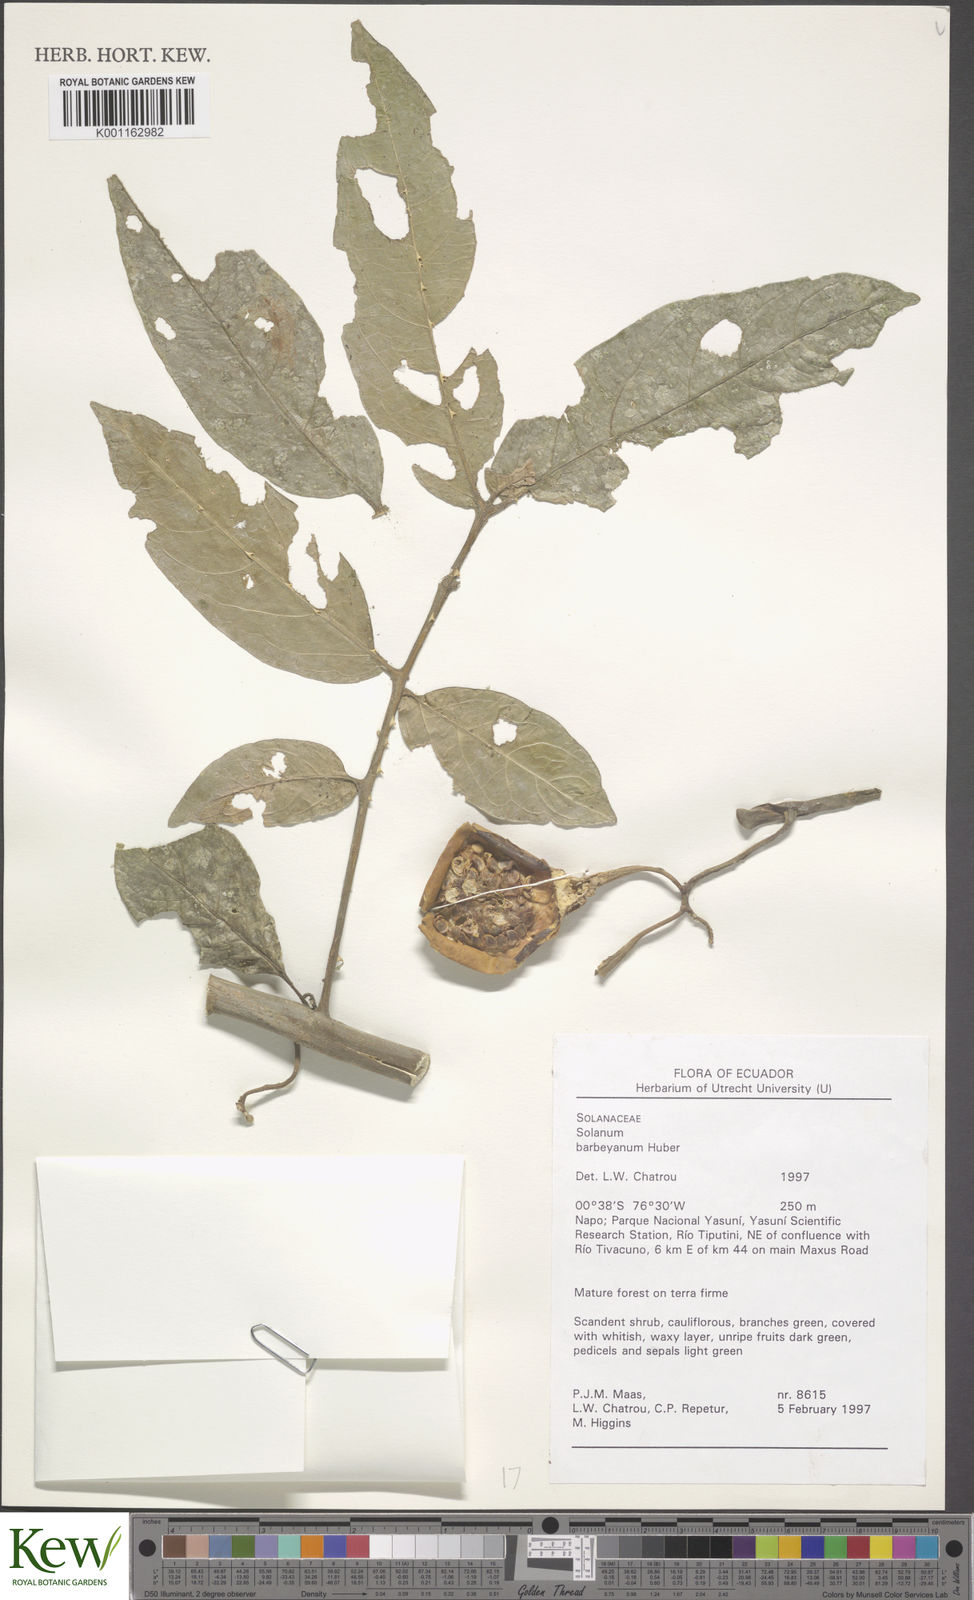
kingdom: Plantae
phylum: Tracheophyta
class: Magnoliopsida
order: Solanales
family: Solanaceae
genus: Solanum
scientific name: Solanum barbeyanum
